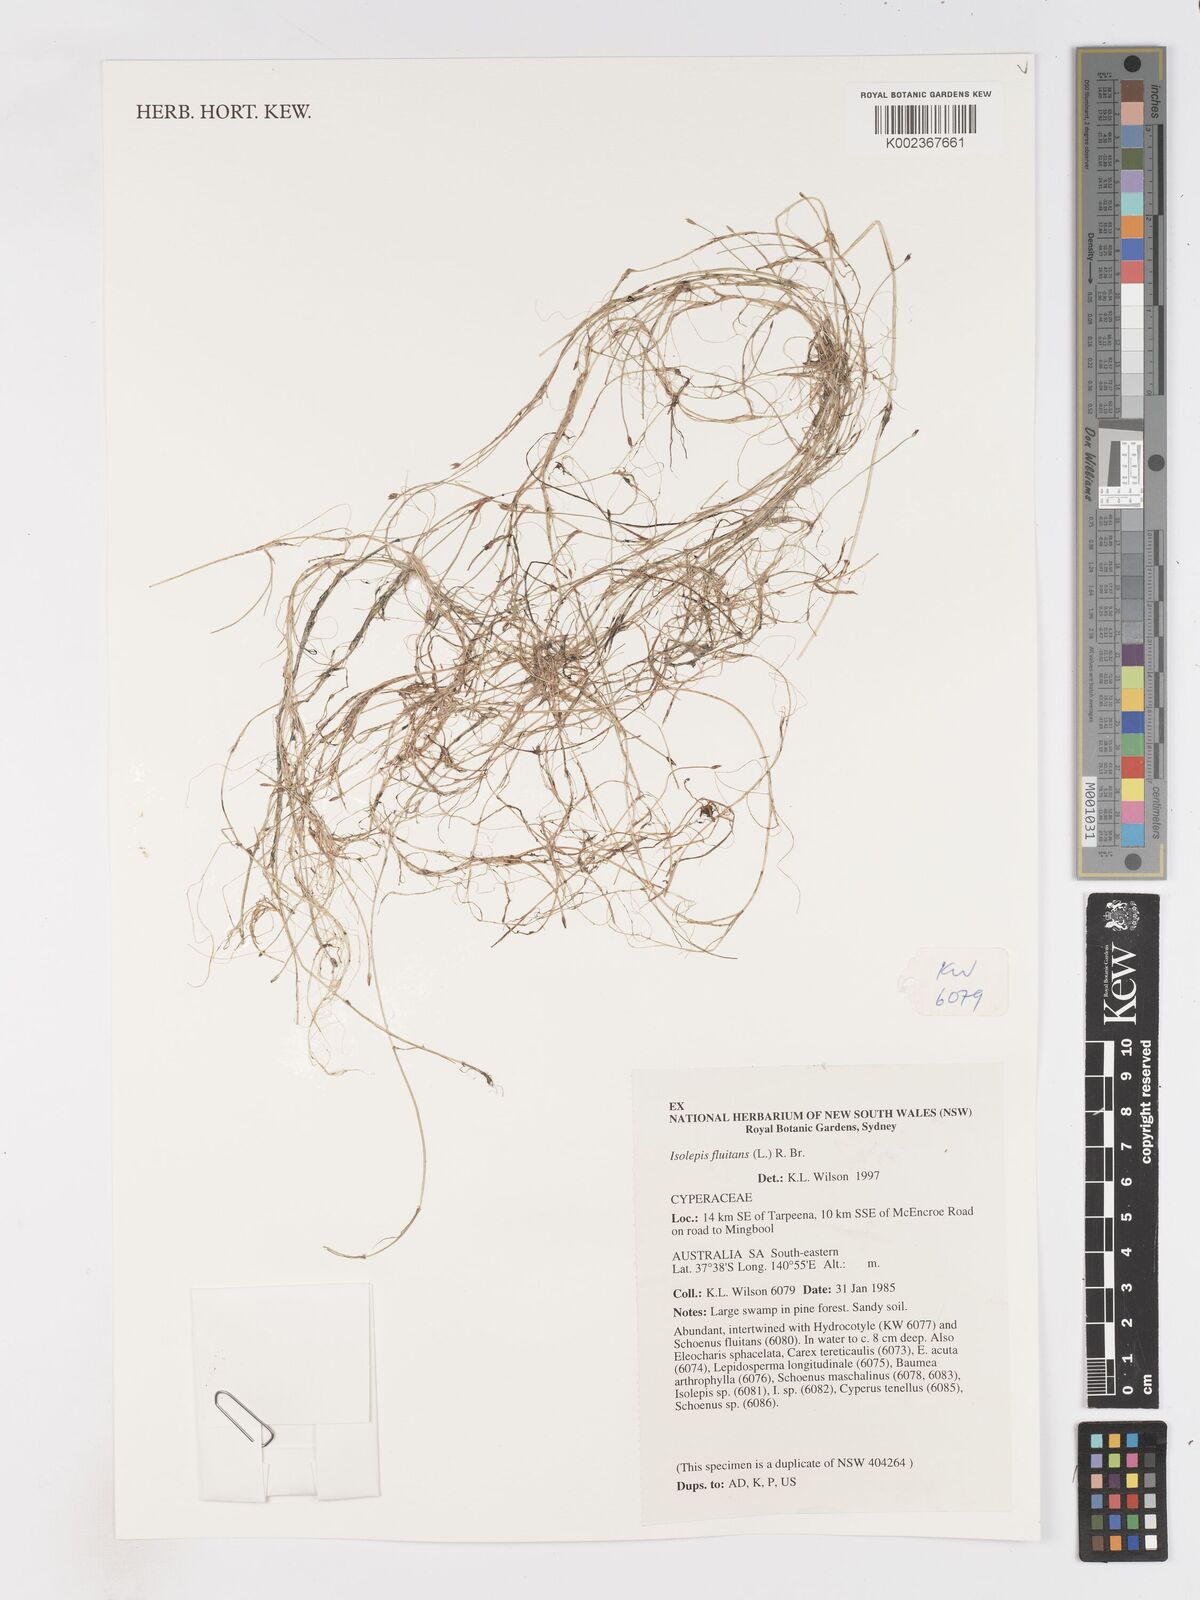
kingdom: Plantae
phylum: Tracheophyta
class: Liliopsida
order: Poales
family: Cyperaceae
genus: Isolepis
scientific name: Isolepis fluitans
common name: Floating club-rush
